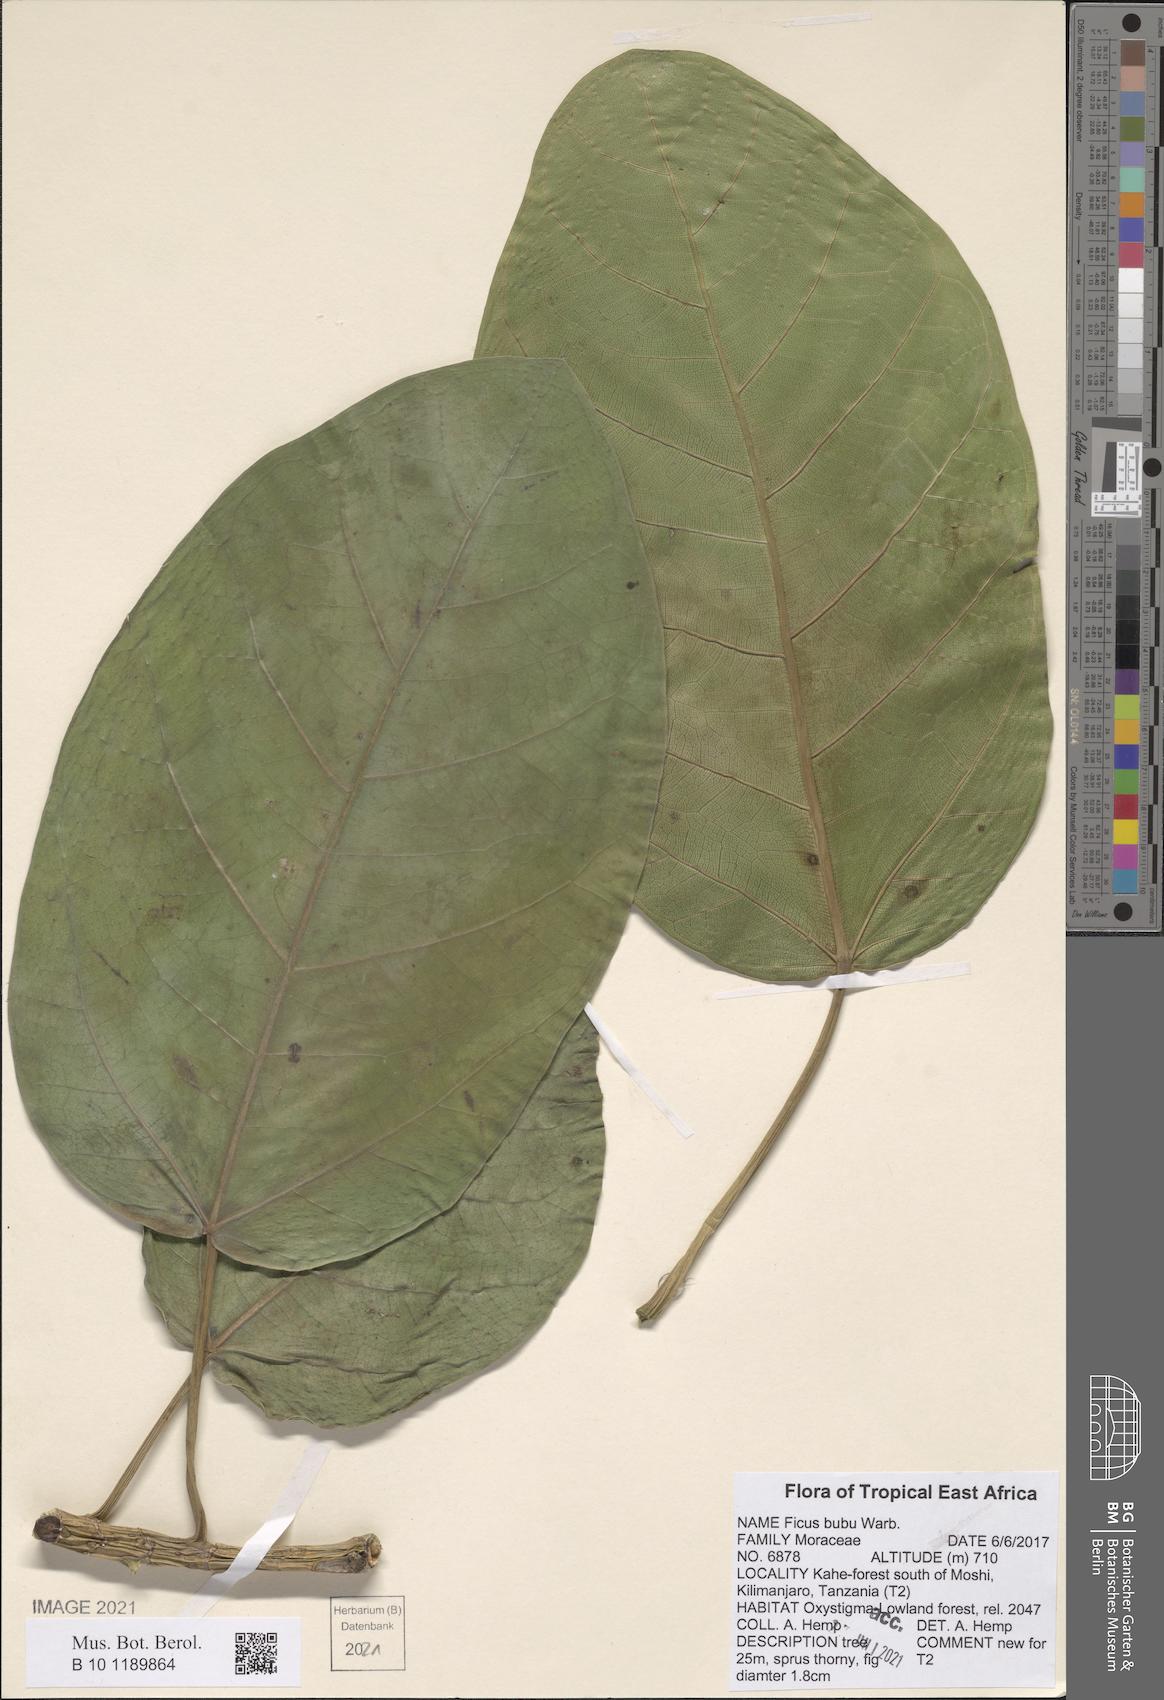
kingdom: Plantae
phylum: Tracheophyta
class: Magnoliopsida
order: Rosales
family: Moraceae
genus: Ficus
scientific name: Ficus bubu
